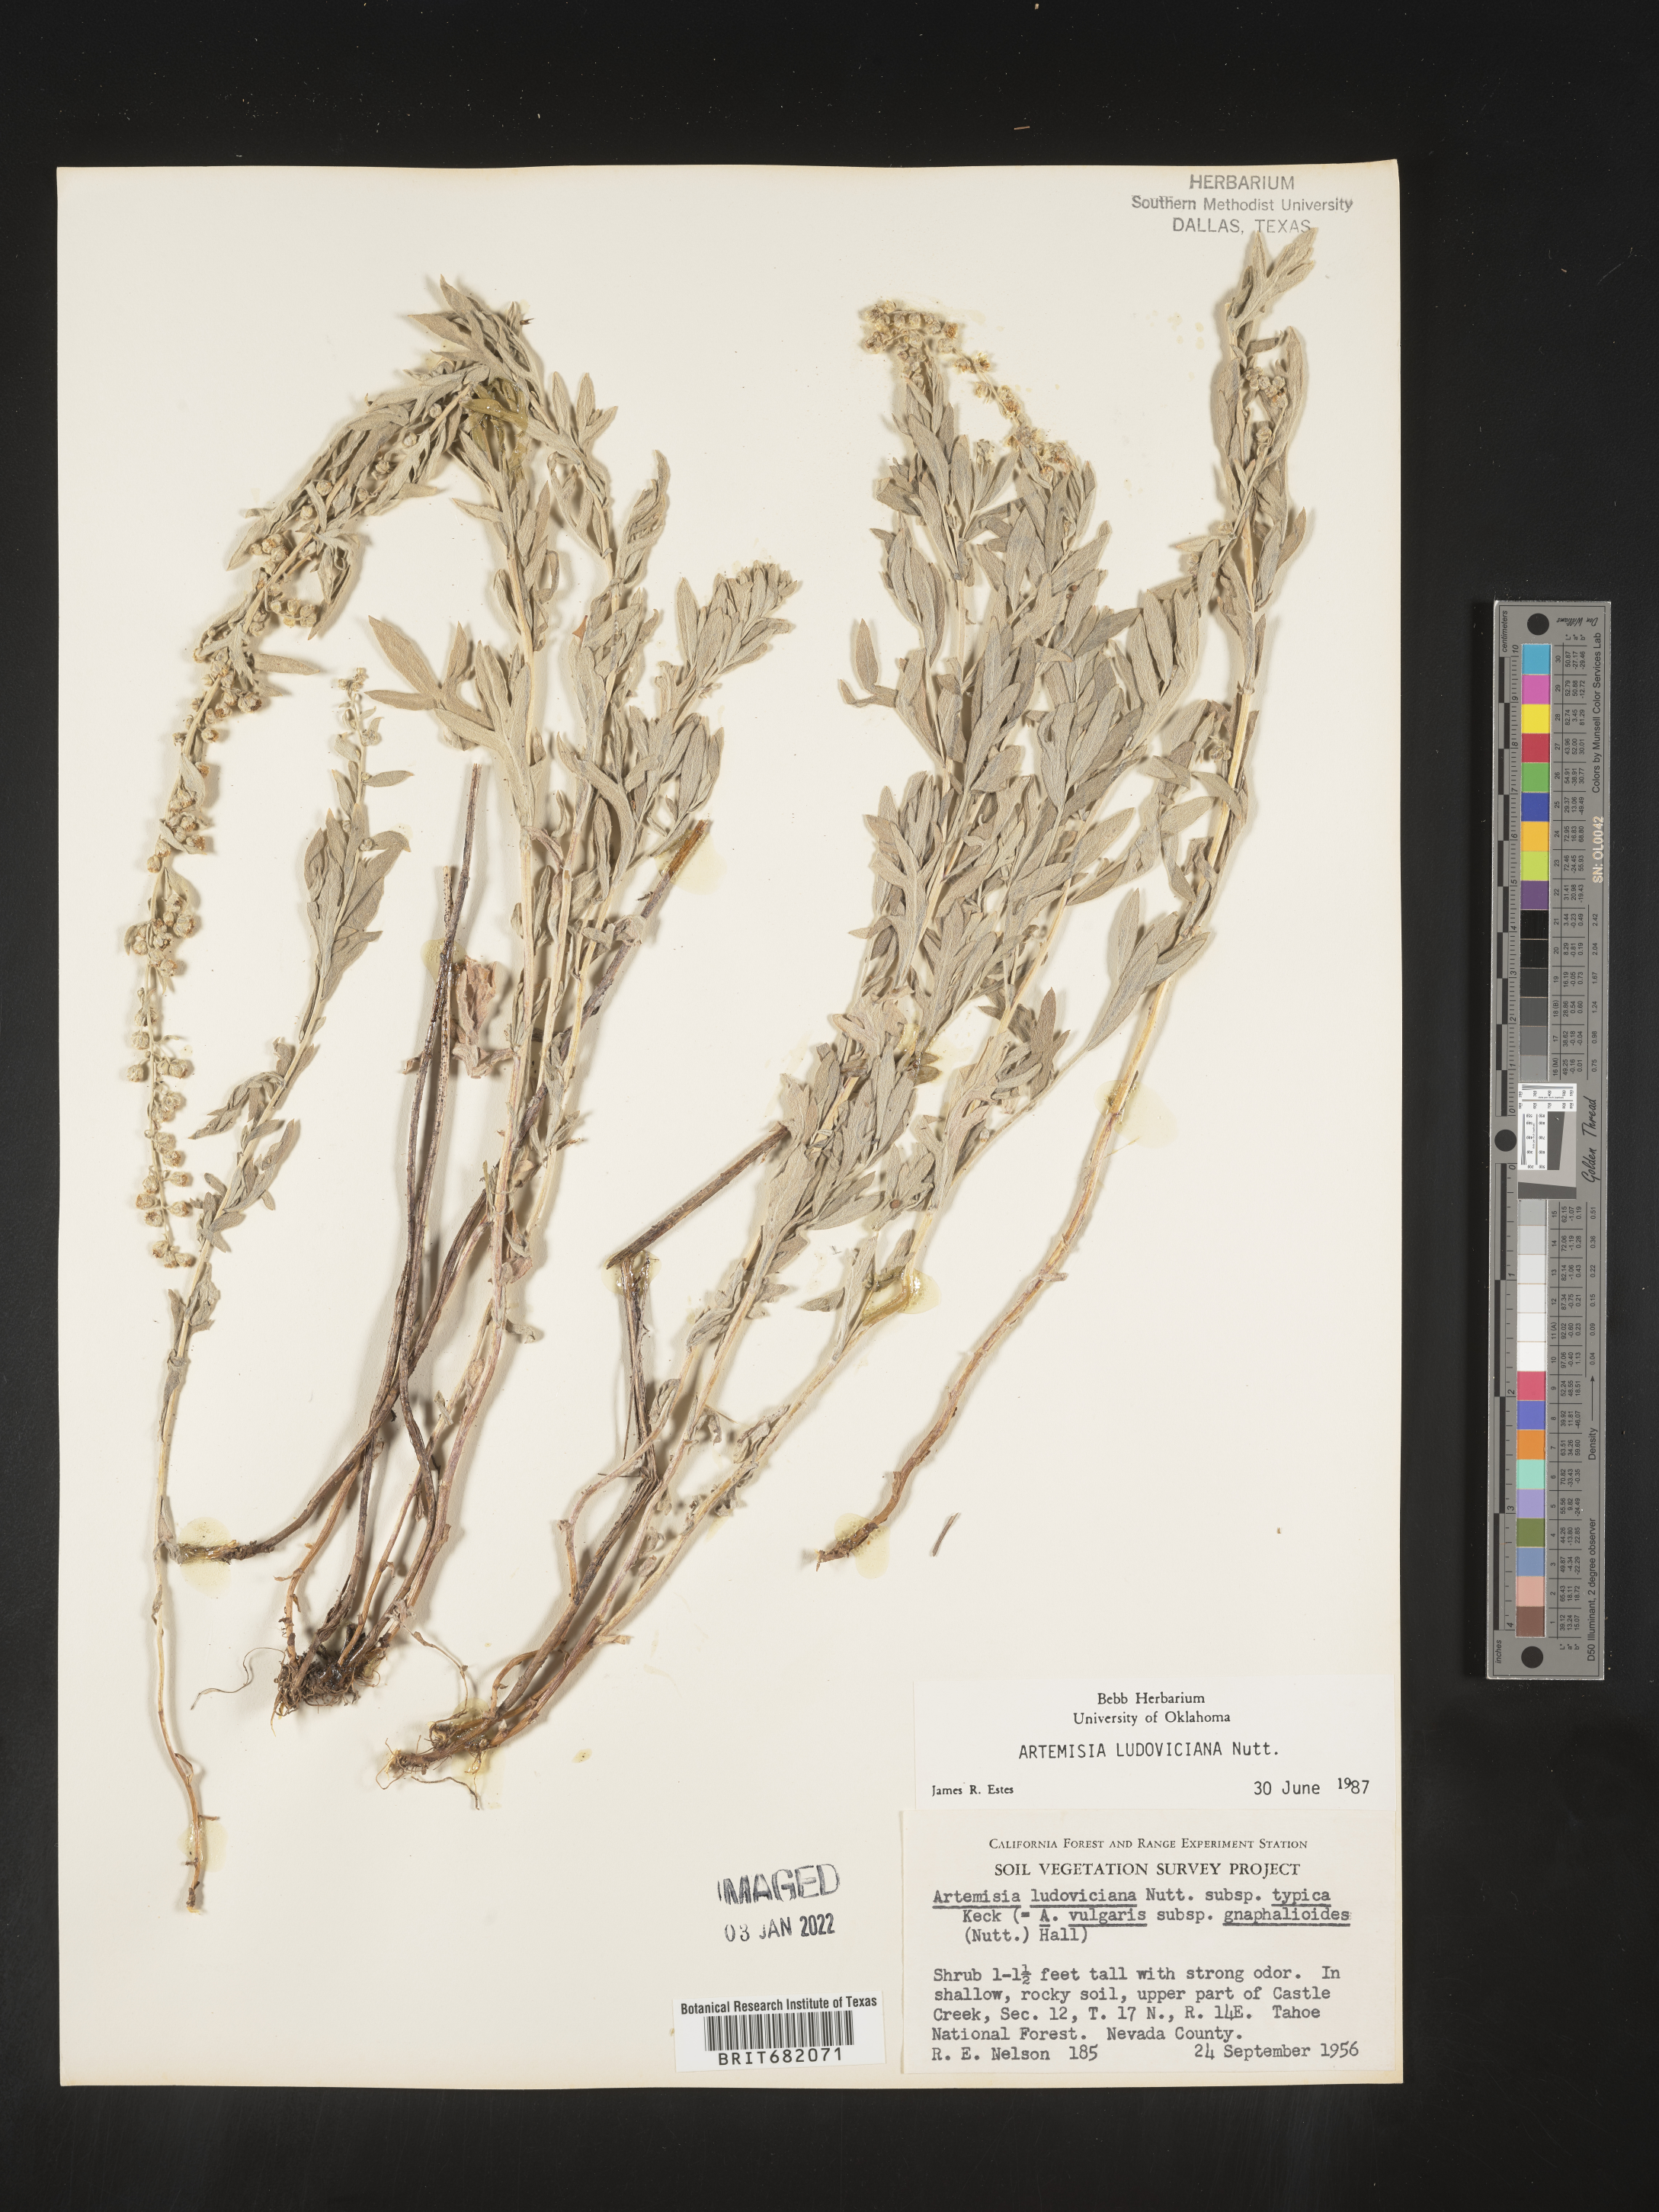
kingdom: Plantae
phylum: Tracheophyta
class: Magnoliopsida
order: Asterales
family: Asteraceae
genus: Artemisia
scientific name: Artemisia ludoviciana
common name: Western mugwort
